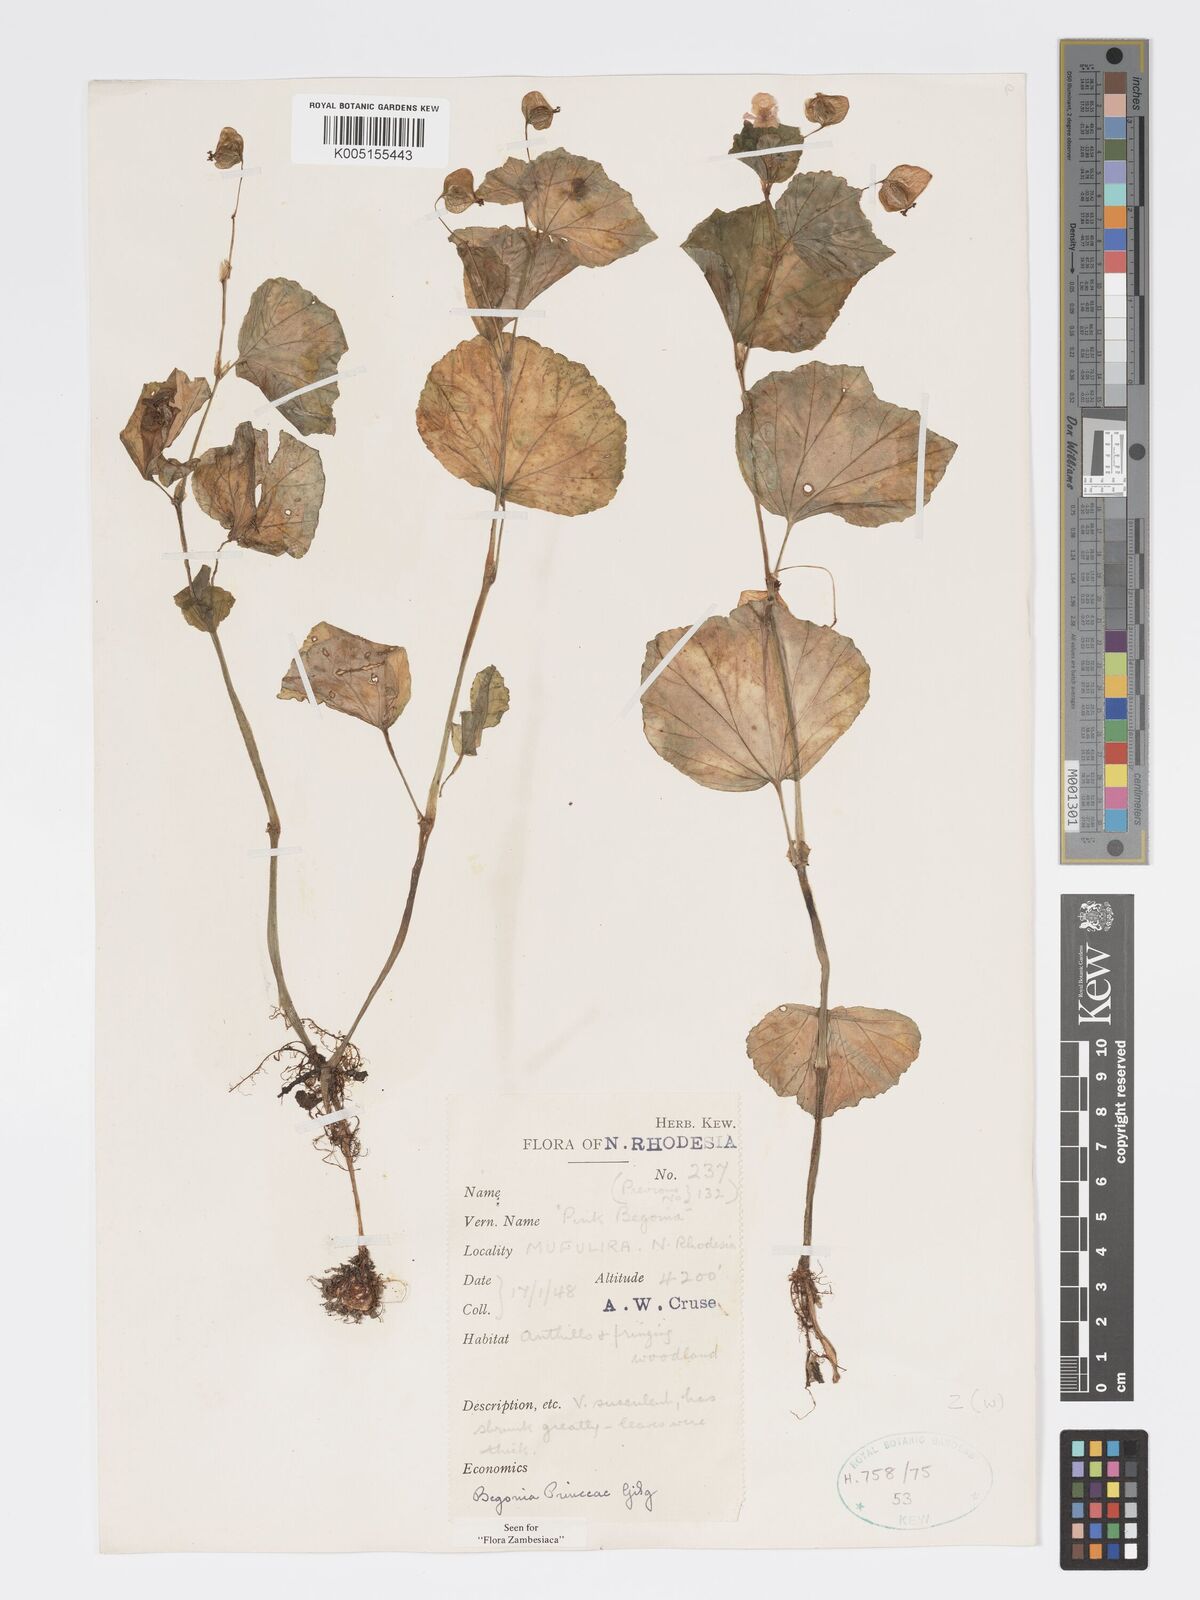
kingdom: Plantae
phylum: Tracheophyta
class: Magnoliopsida
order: Cucurbitales
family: Begoniaceae
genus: Begonia
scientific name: Begonia princeae
